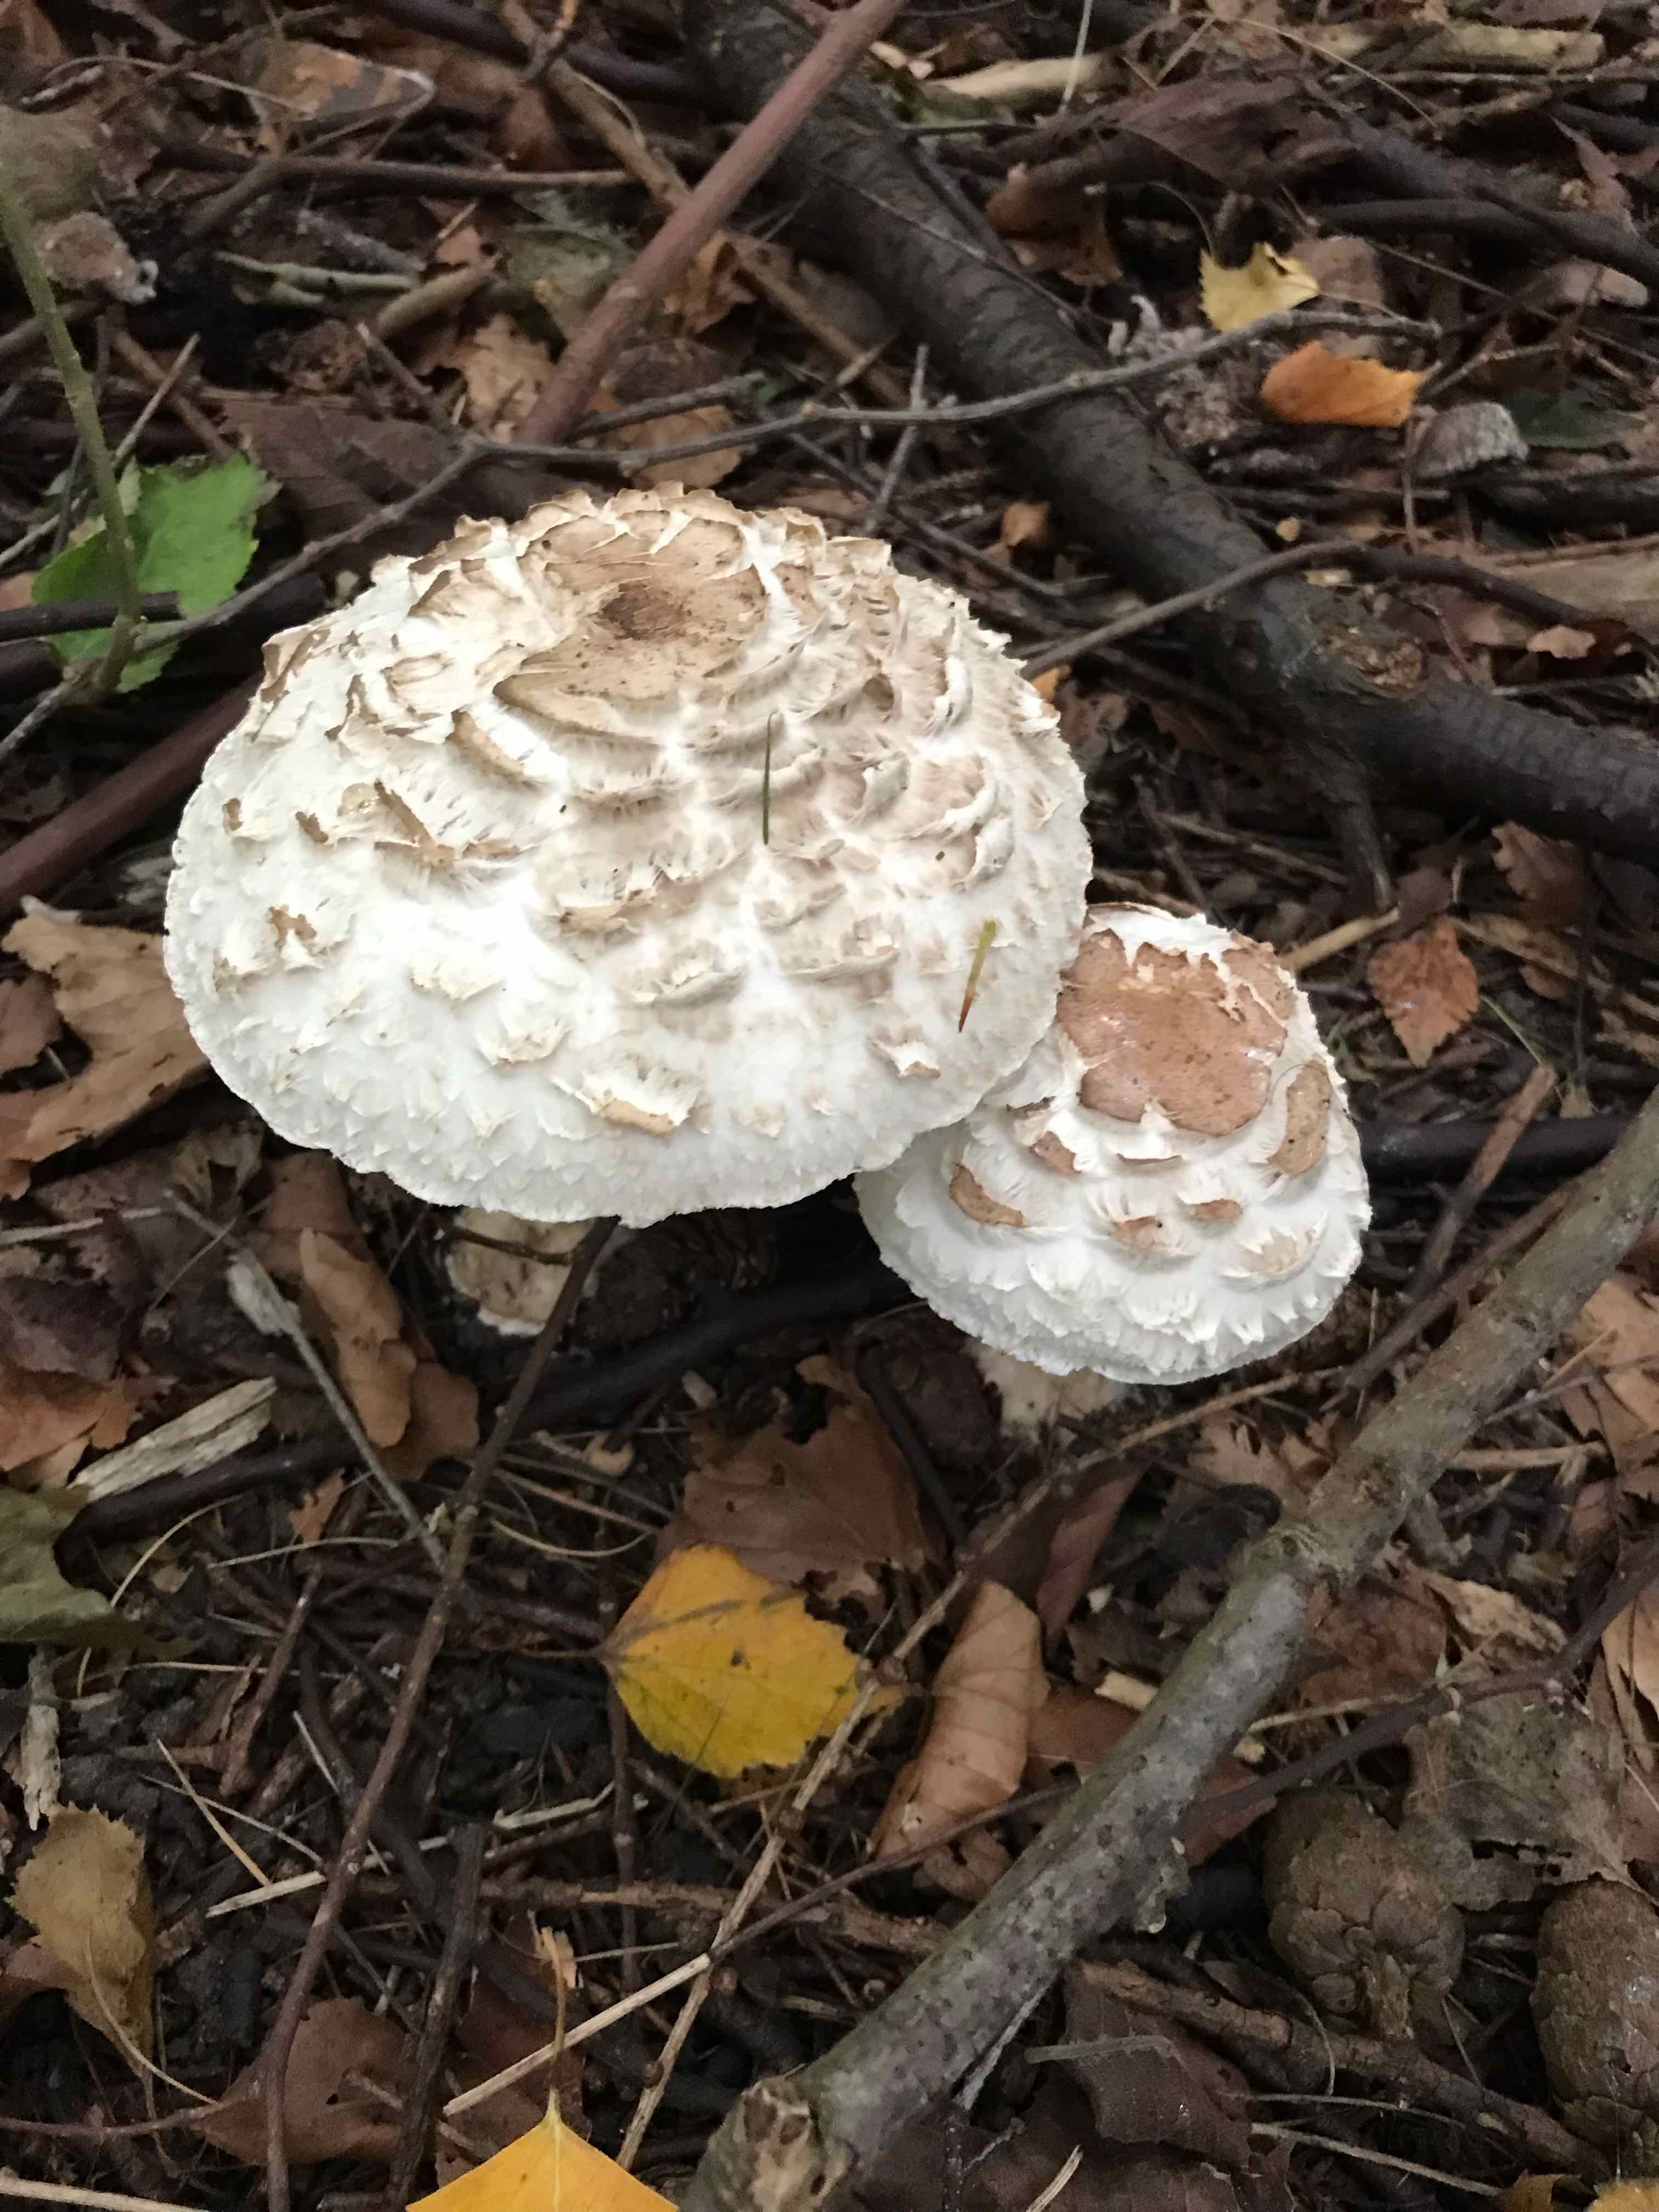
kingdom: Fungi
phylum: Basidiomycota
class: Agaricomycetes
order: Agaricales
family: Agaricaceae
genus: Chlorophyllum
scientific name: Chlorophyllum brunneum
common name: giftig rabarberhat
